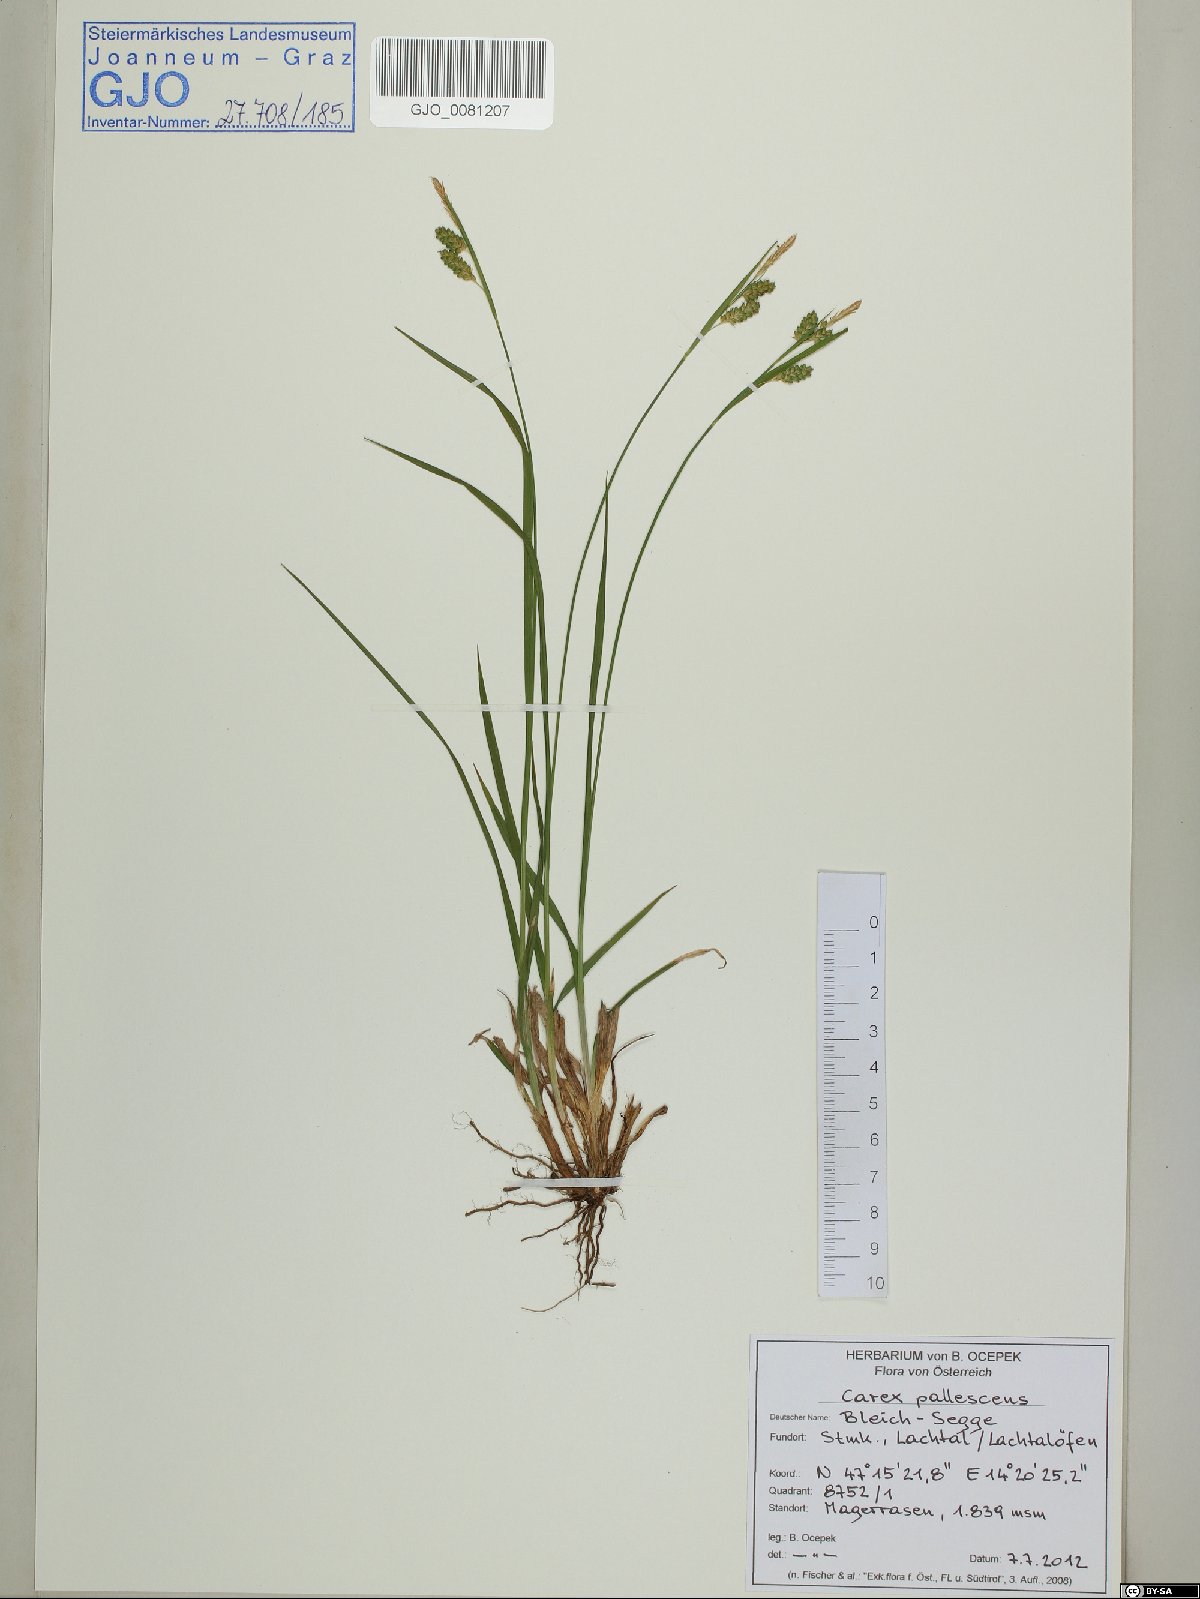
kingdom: Plantae
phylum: Tracheophyta
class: Liliopsida
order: Poales
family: Cyperaceae
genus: Carex
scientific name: Carex pallescens
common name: Pale sedge
